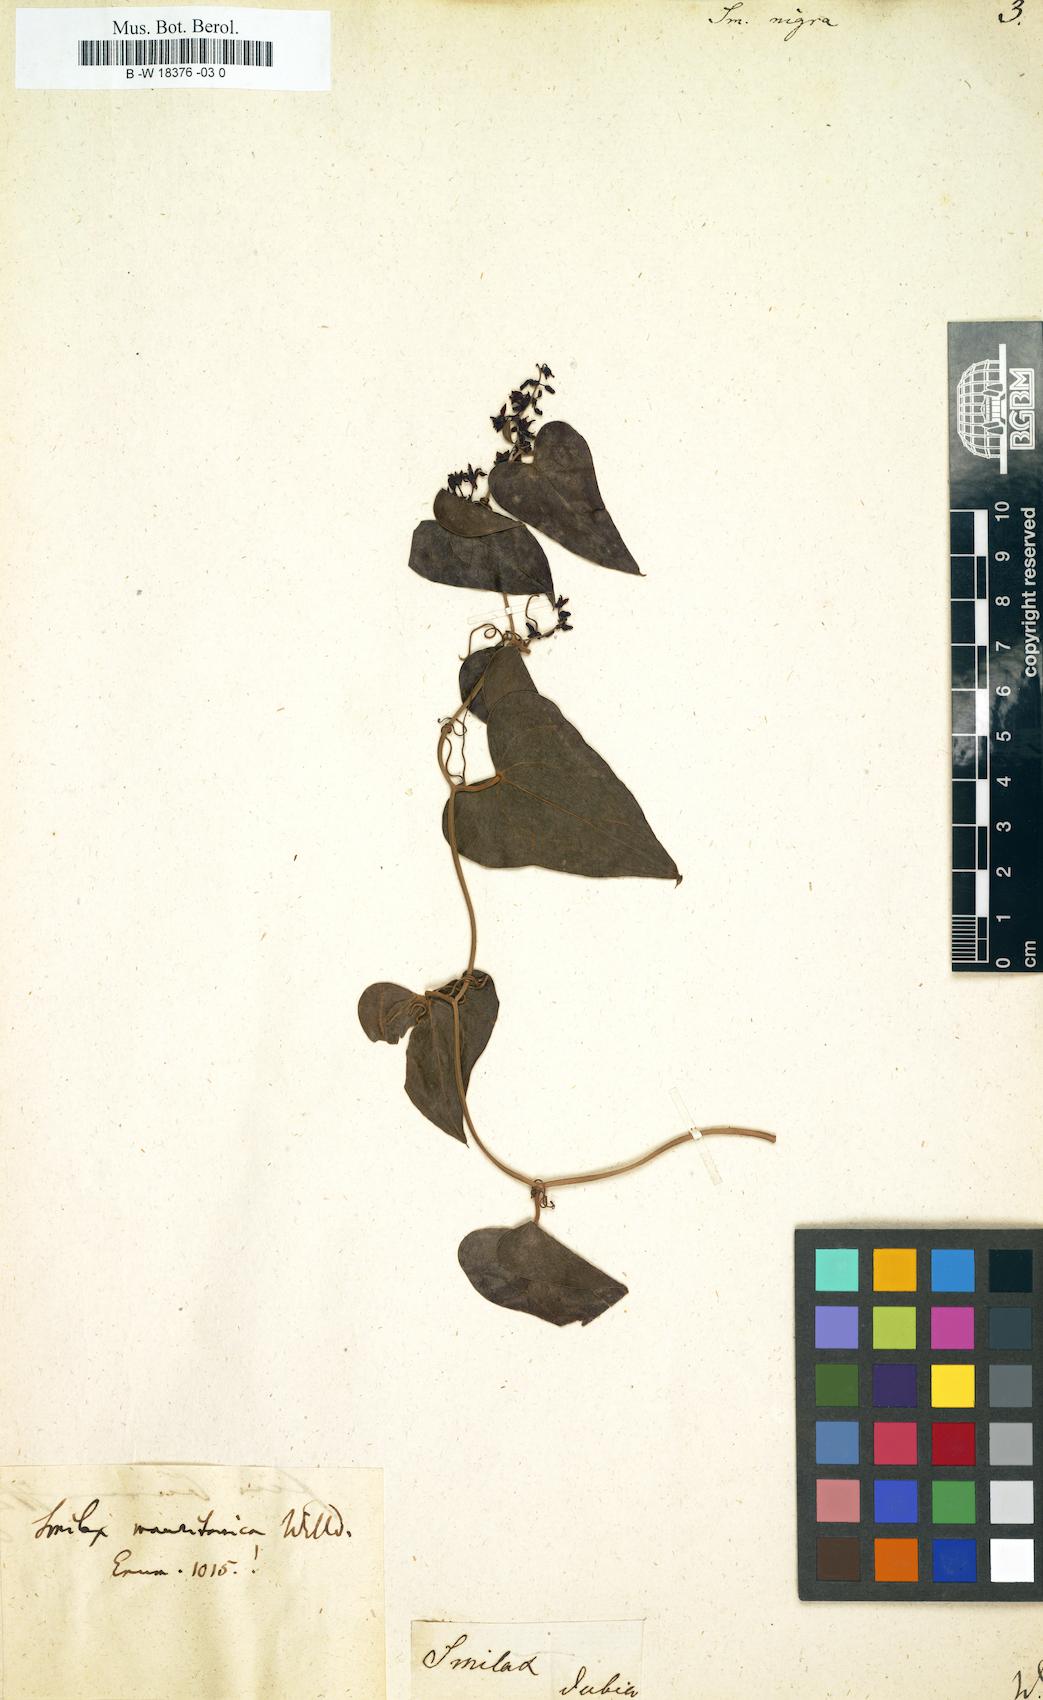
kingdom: Plantae
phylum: Tracheophyta
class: Liliopsida
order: Liliales
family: Smilacaceae
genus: Smilax
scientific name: Smilax aspera
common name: Common smilax
